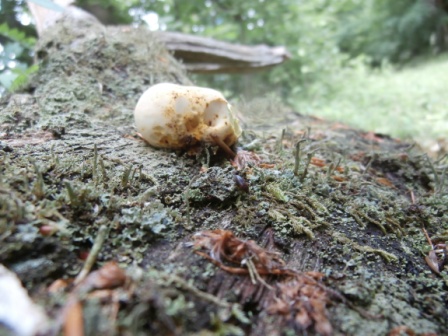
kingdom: Fungi
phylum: Basidiomycota
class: Agaricomycetes
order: Polyporales
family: Fomitopsidaceae
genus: Buglossoporus
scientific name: Buglossoporus quercinus
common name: egetunge
